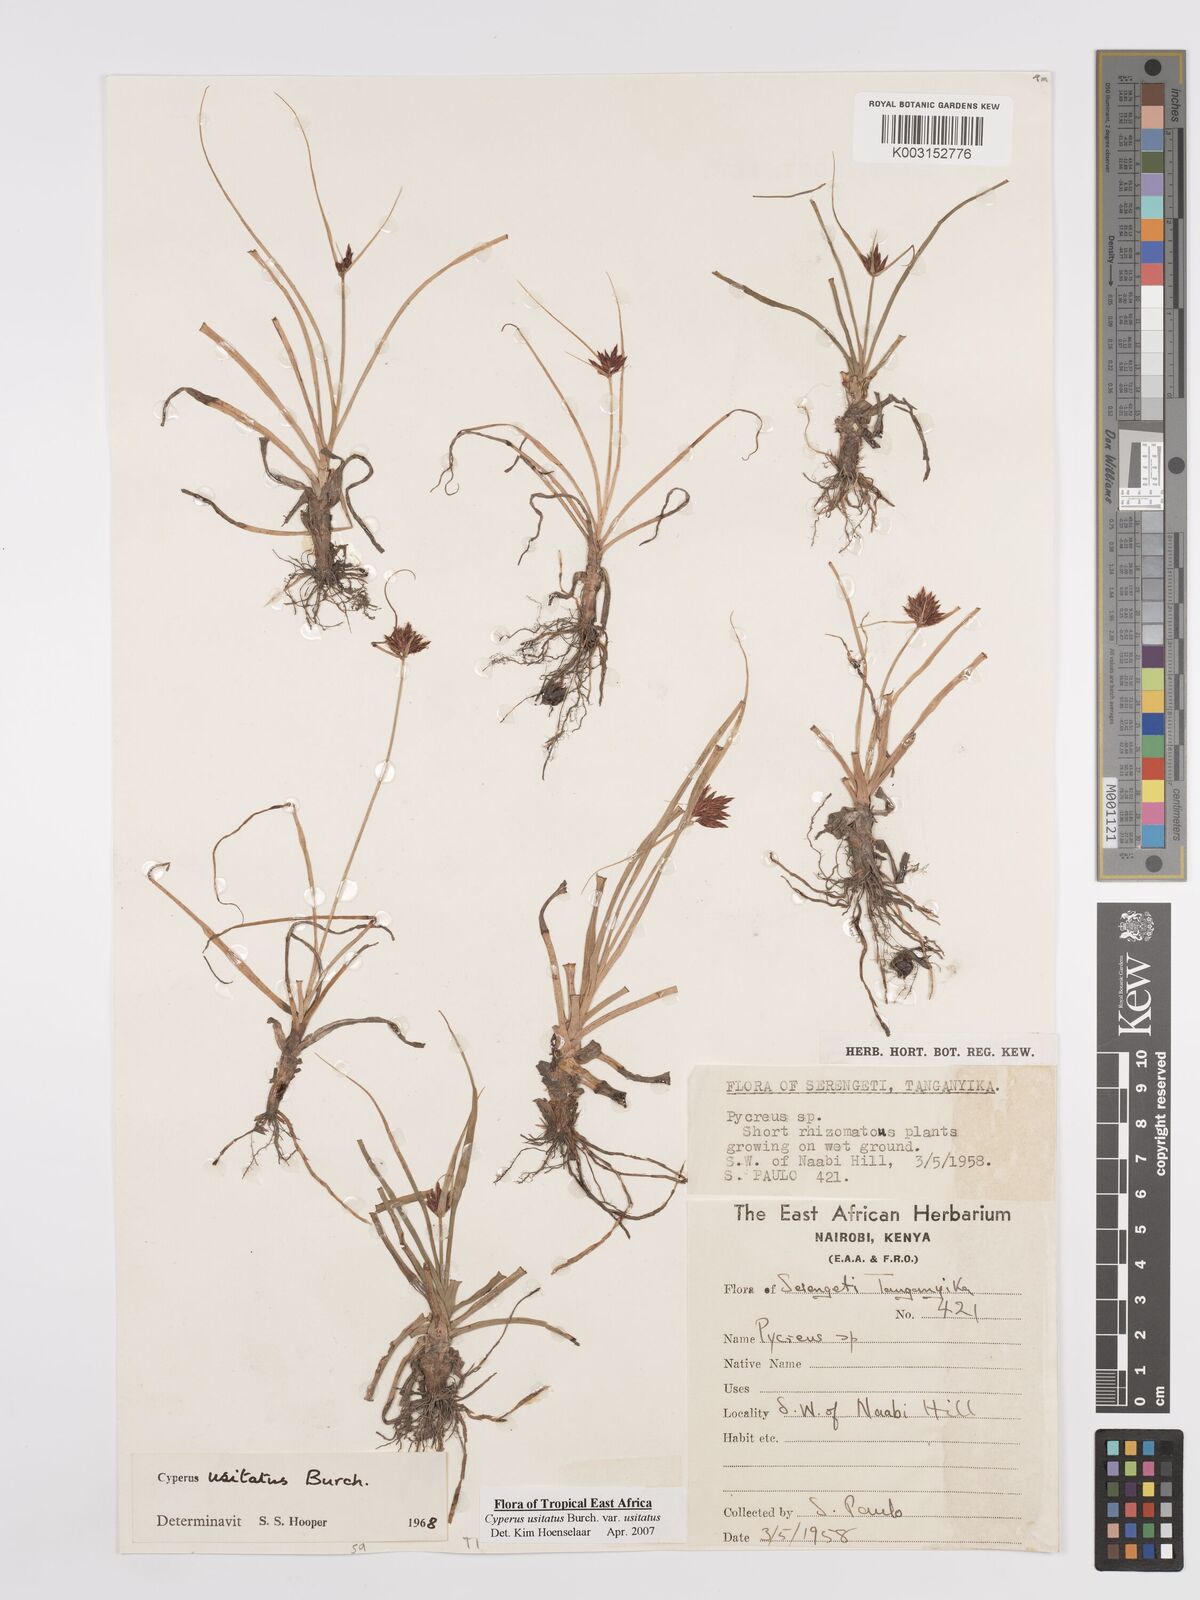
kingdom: Plantae
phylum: Tracheophyta
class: Liliopsida
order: Poales
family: Cyperaceae
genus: Cyperus
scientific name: Cyperus usitatus
